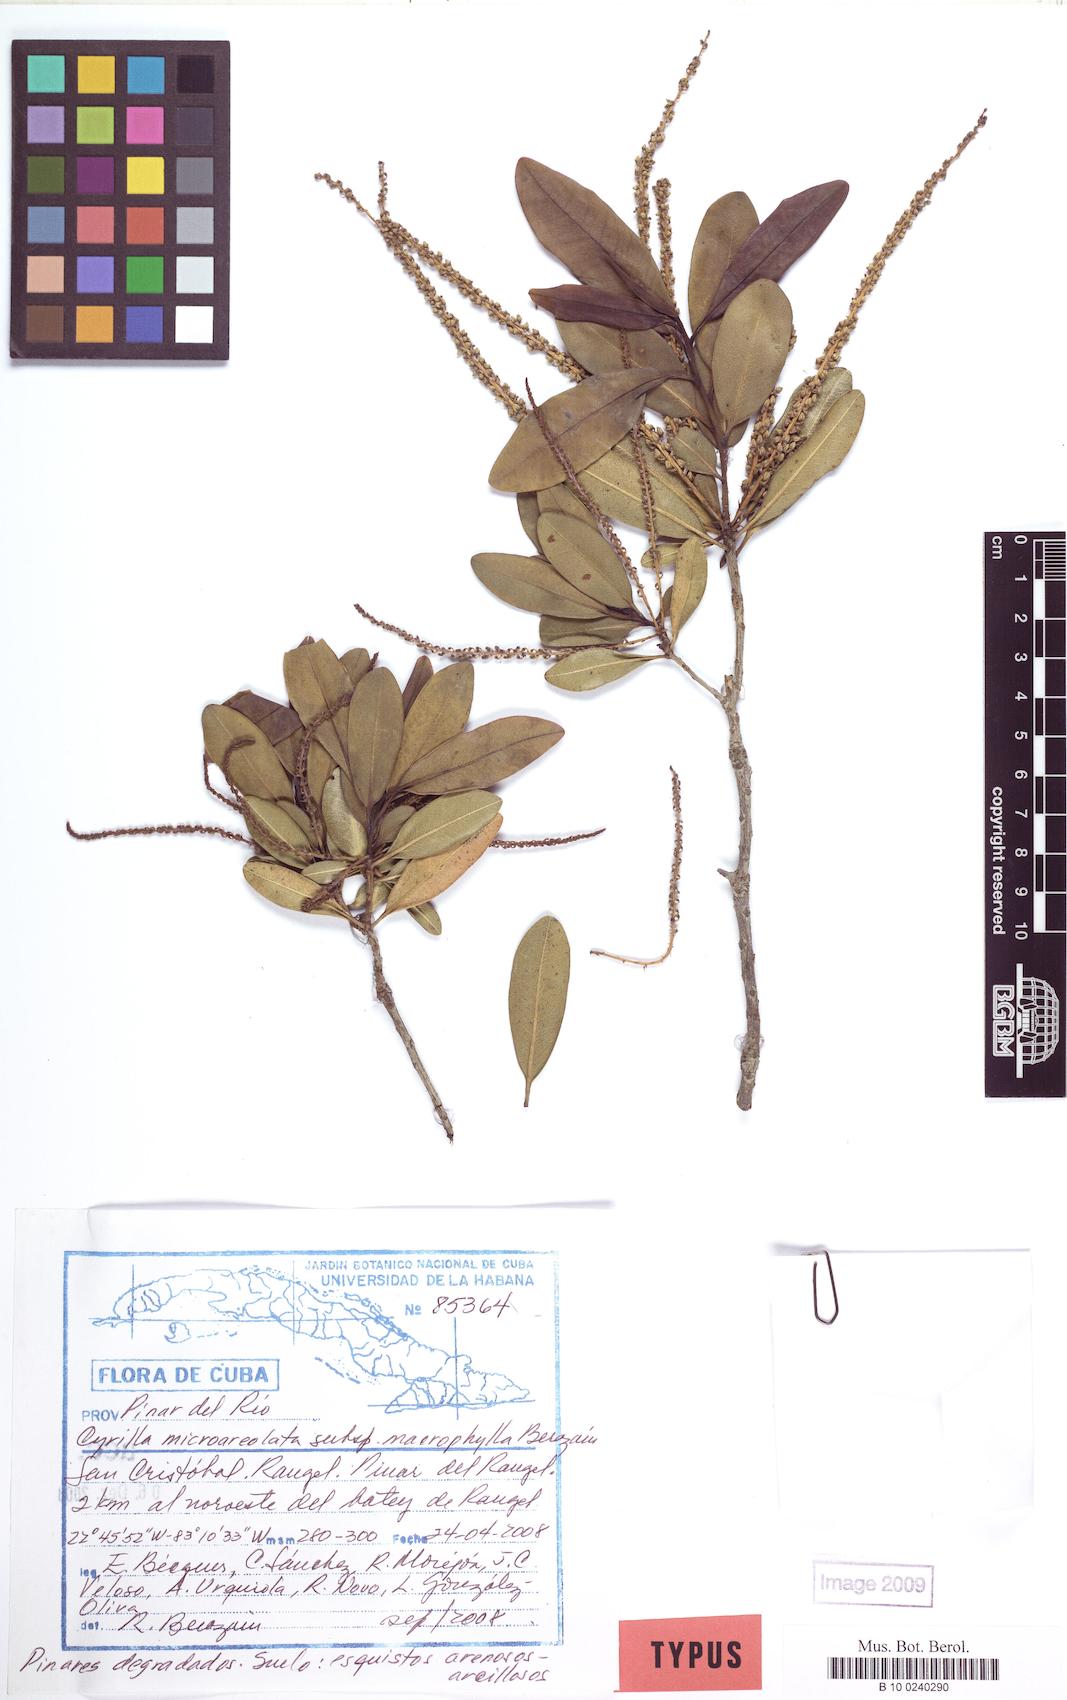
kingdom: Plantae
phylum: Tracheophyta
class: Magnoliopsida
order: Ericales
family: Cyrillaceae
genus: Cyrilla
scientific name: Cyrilla microareolata
